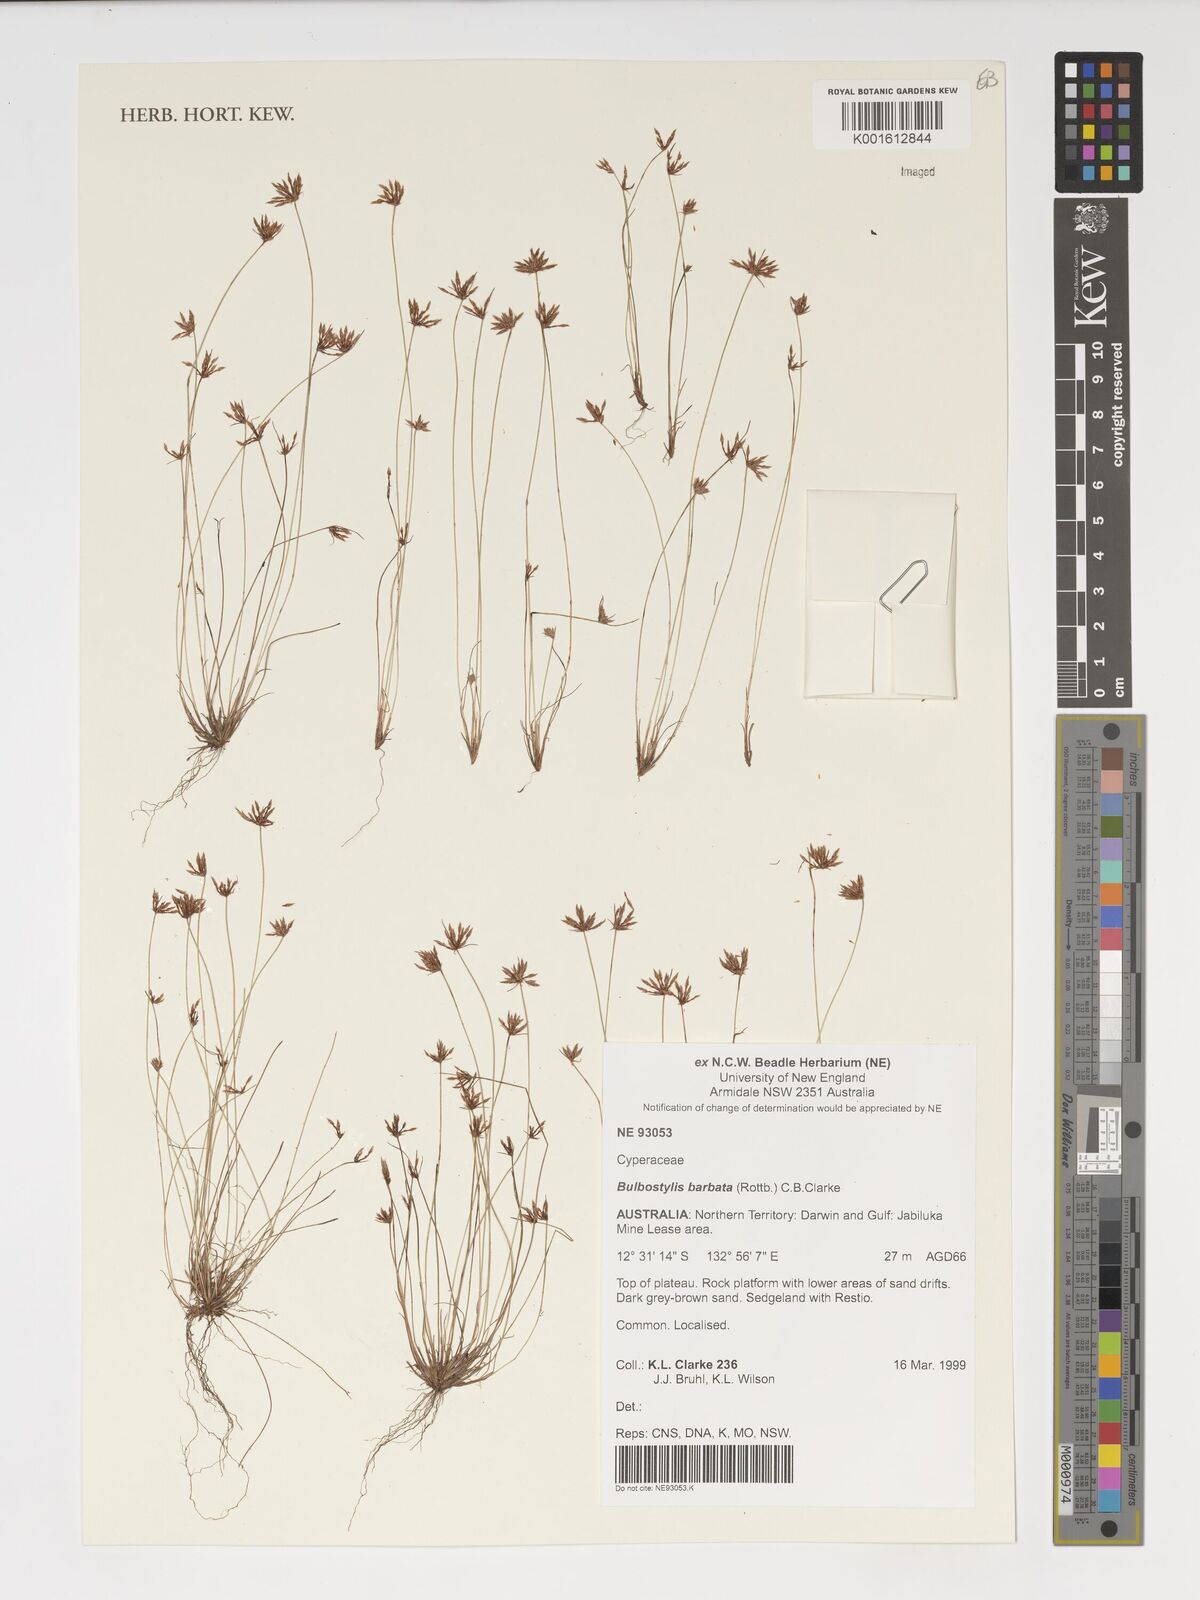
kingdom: Plantae
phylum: Tracheophyta
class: Liliopsida
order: Poales
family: Cyperaceae
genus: Bulbostylis
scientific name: Bulbostylis barbata
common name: Watergrass
